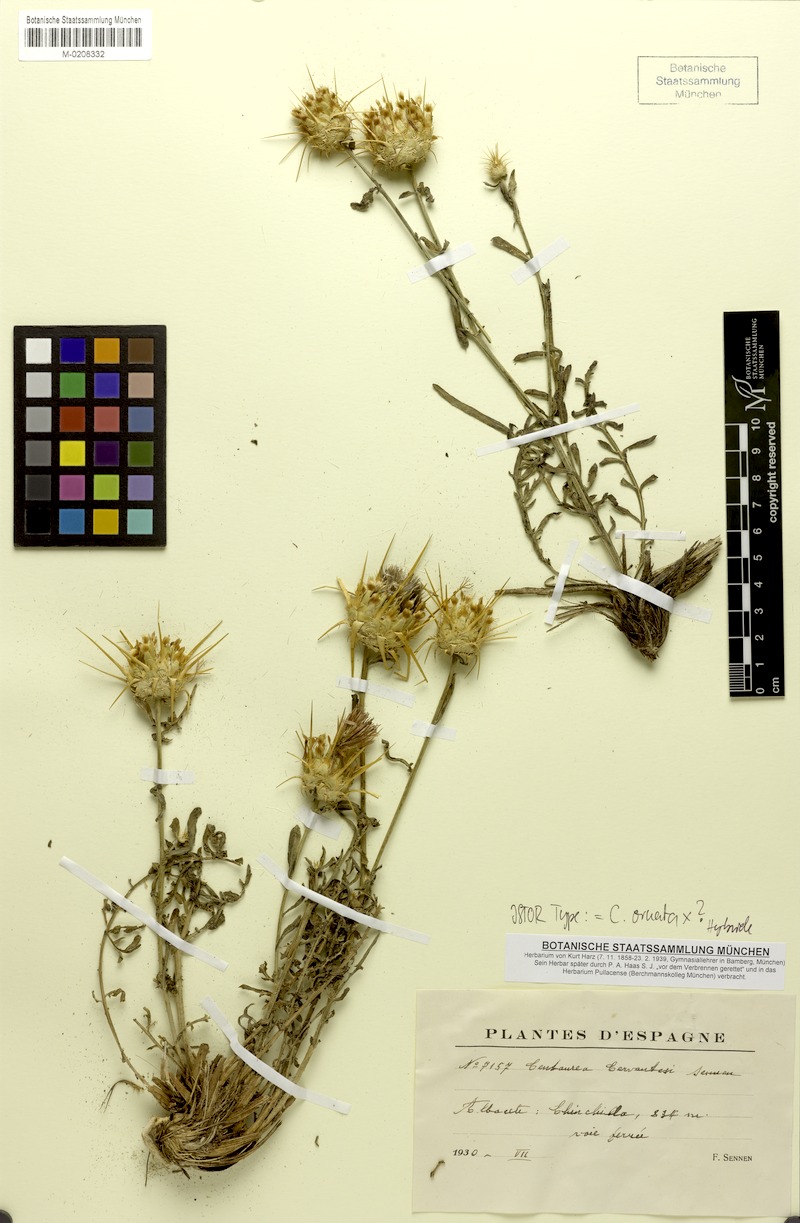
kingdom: Plantae
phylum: Tracheophyta
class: Magnoliopsida
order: Asterales
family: Asteraceae
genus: Centaurea
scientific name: Centaurea ornata
